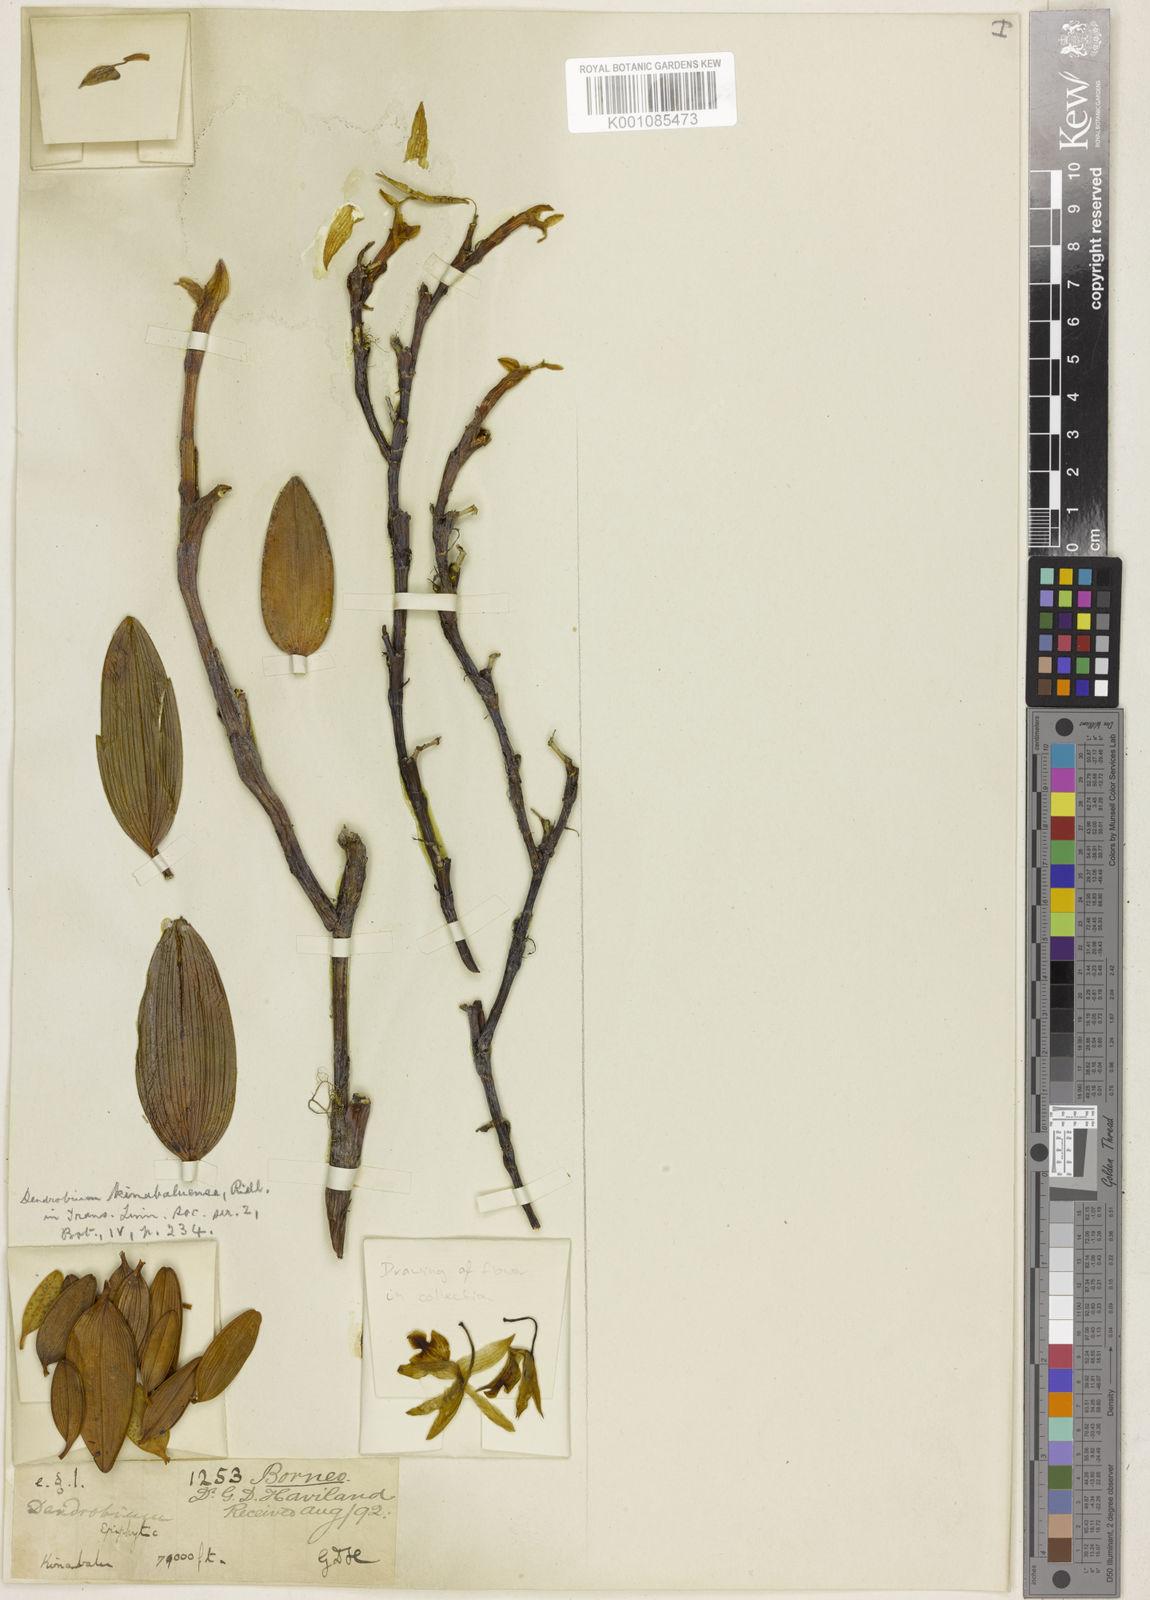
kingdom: Plantae
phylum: Tracheophyta
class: Liliopsida
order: Asparagales
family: Orchidaceae
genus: Dendrobium
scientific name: Dendrobium kinabaluense
